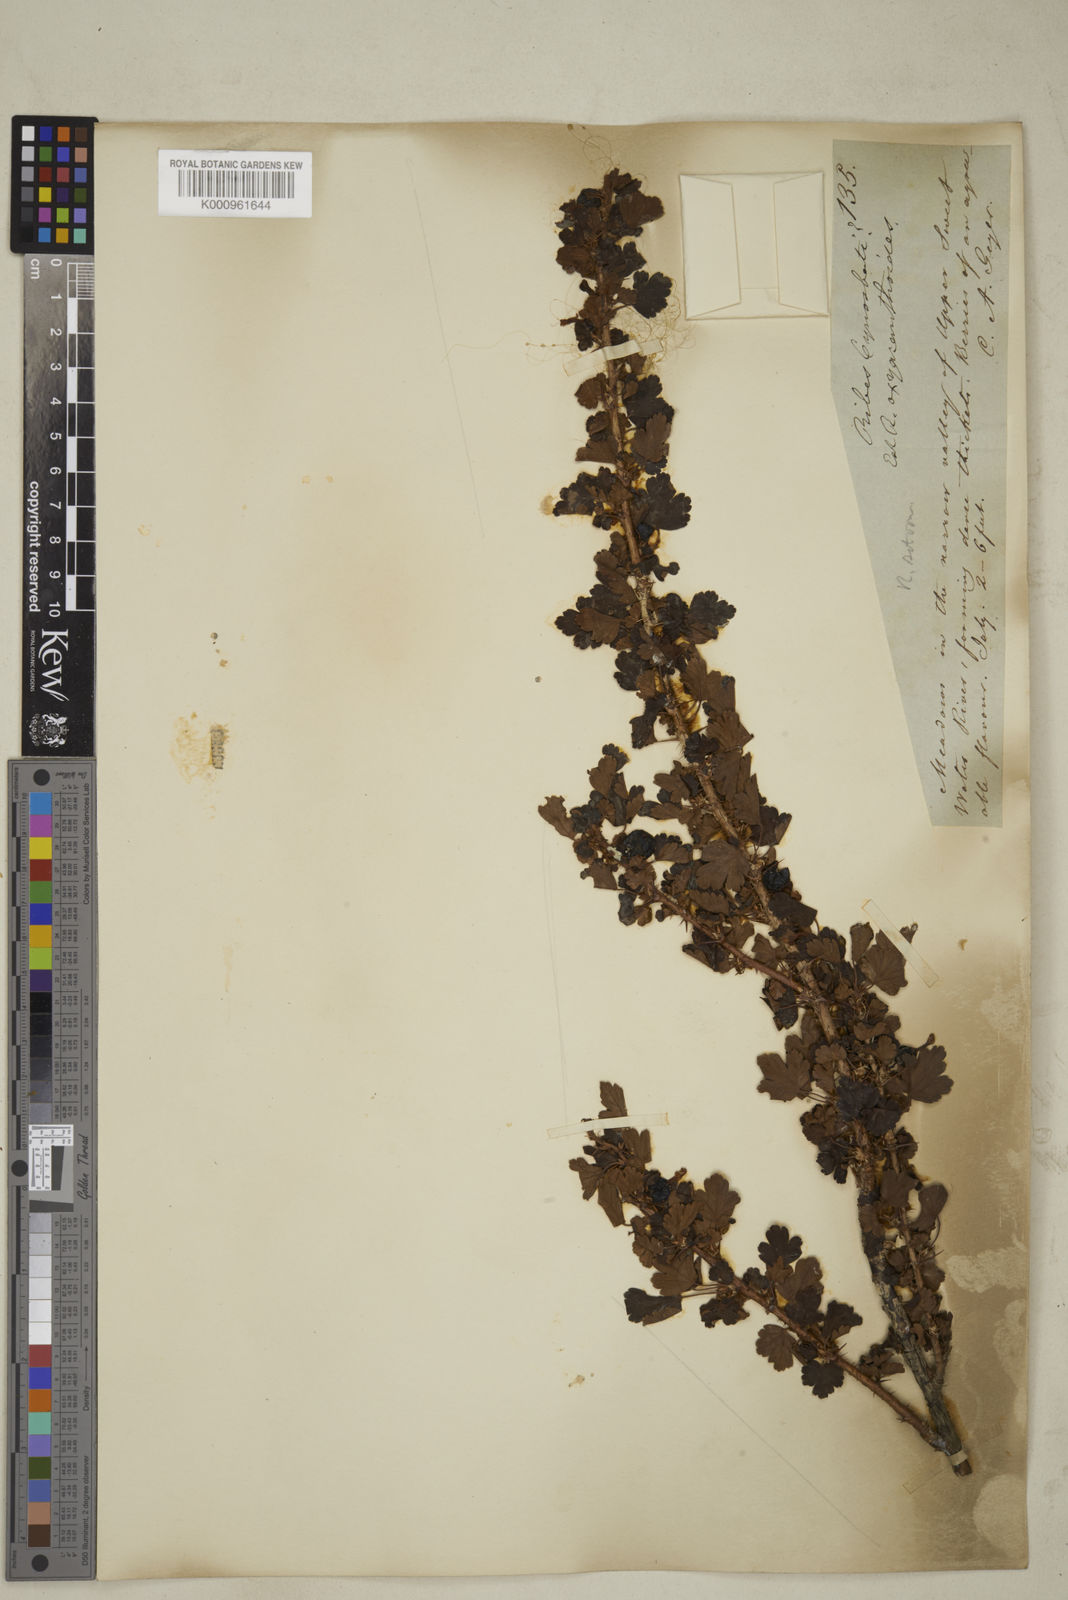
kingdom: Plantae
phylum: Tracheophyta
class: Magnoliopsida
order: Saxifragales
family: Grossulariaceae
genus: Ribes
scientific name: Ribes oxyacanthoides
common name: Northern gooseberry
